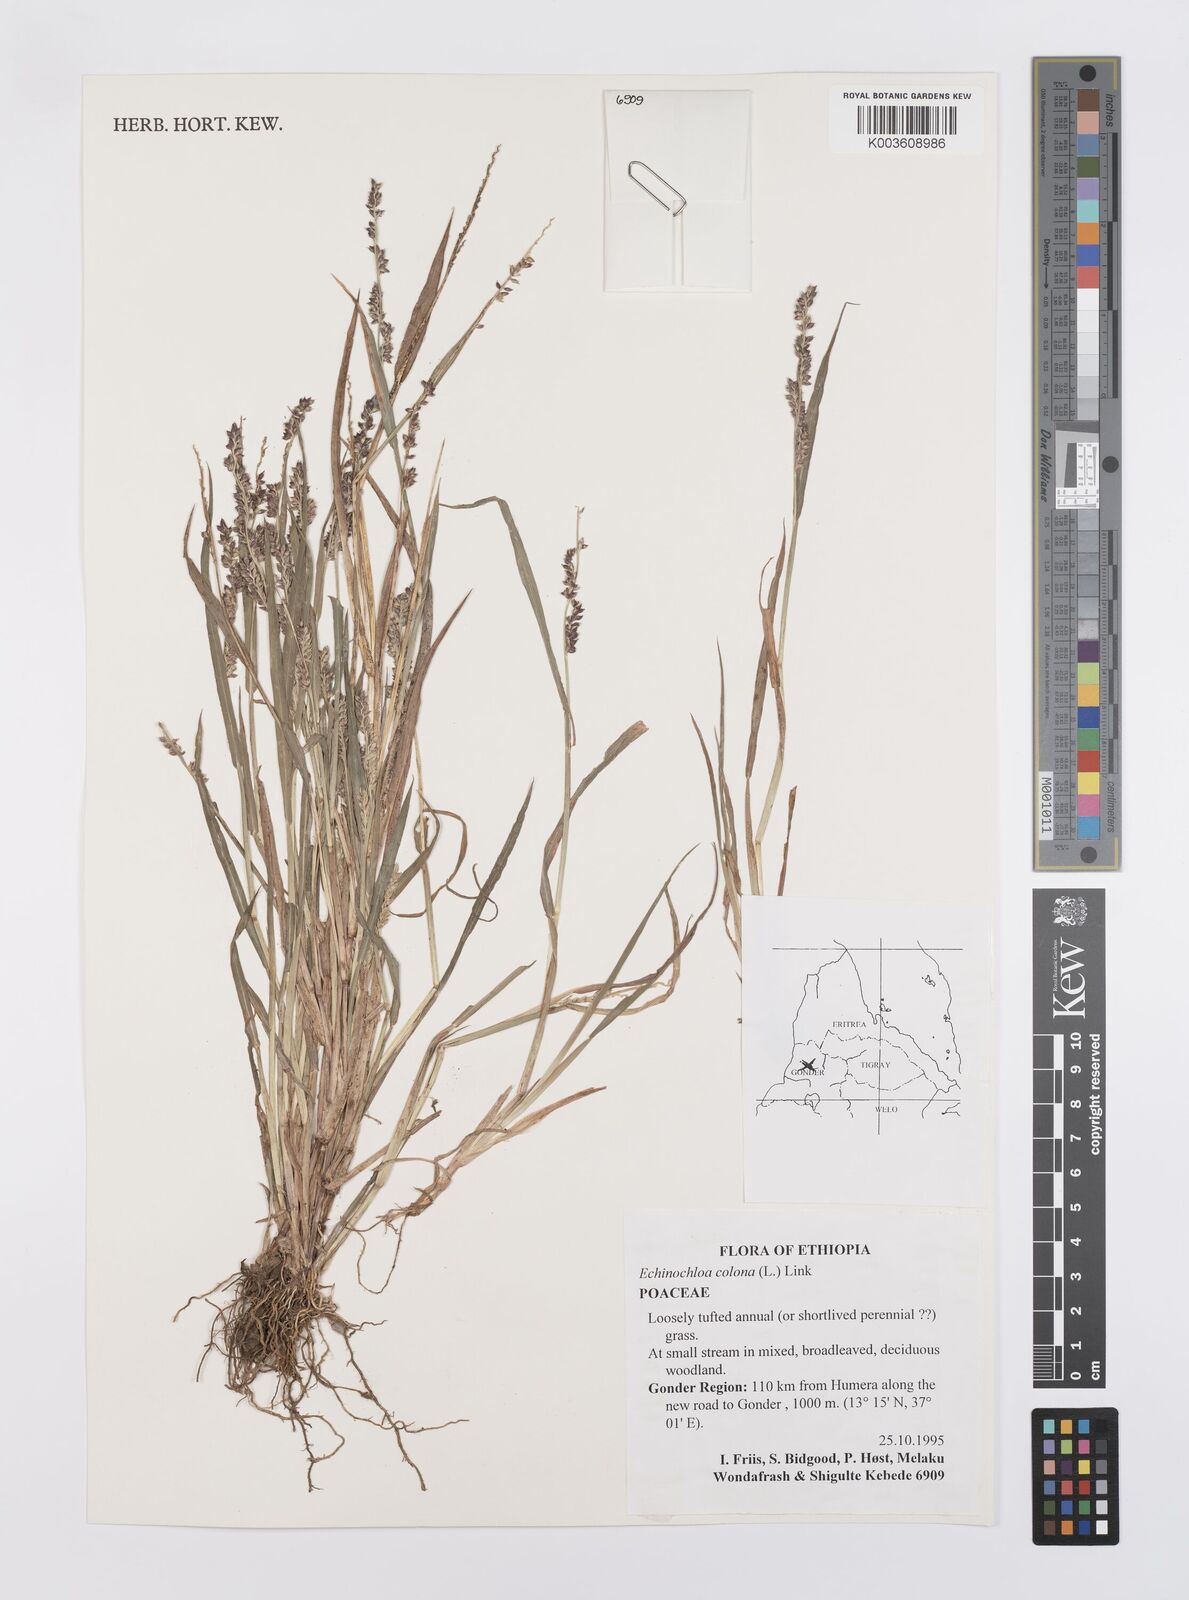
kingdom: Plantae
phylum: Tracheophyta
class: Liliopsida
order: Poales
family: Poaceae
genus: Echinochloa
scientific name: Echinochloa colonum
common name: Jungle rice
